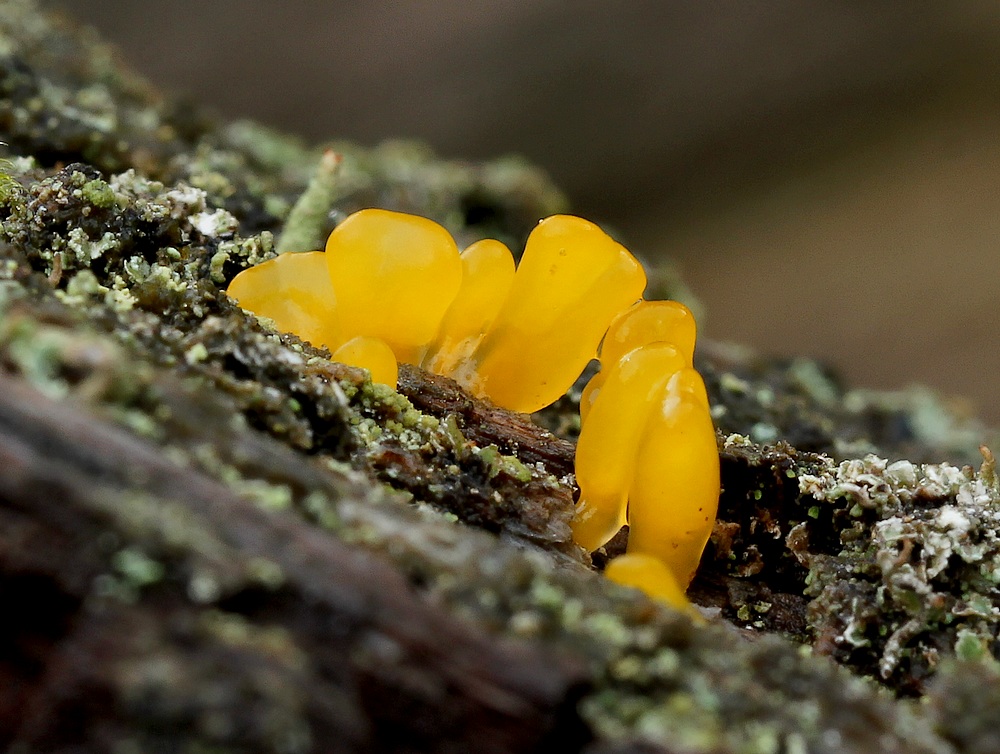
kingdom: Fungi
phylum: Basidiomycota
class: Dacrymycetes
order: Dacrymycetales
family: Dacrymycetaceae
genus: Calocera
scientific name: Calocera glossoides
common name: kølle-guldgaffel
